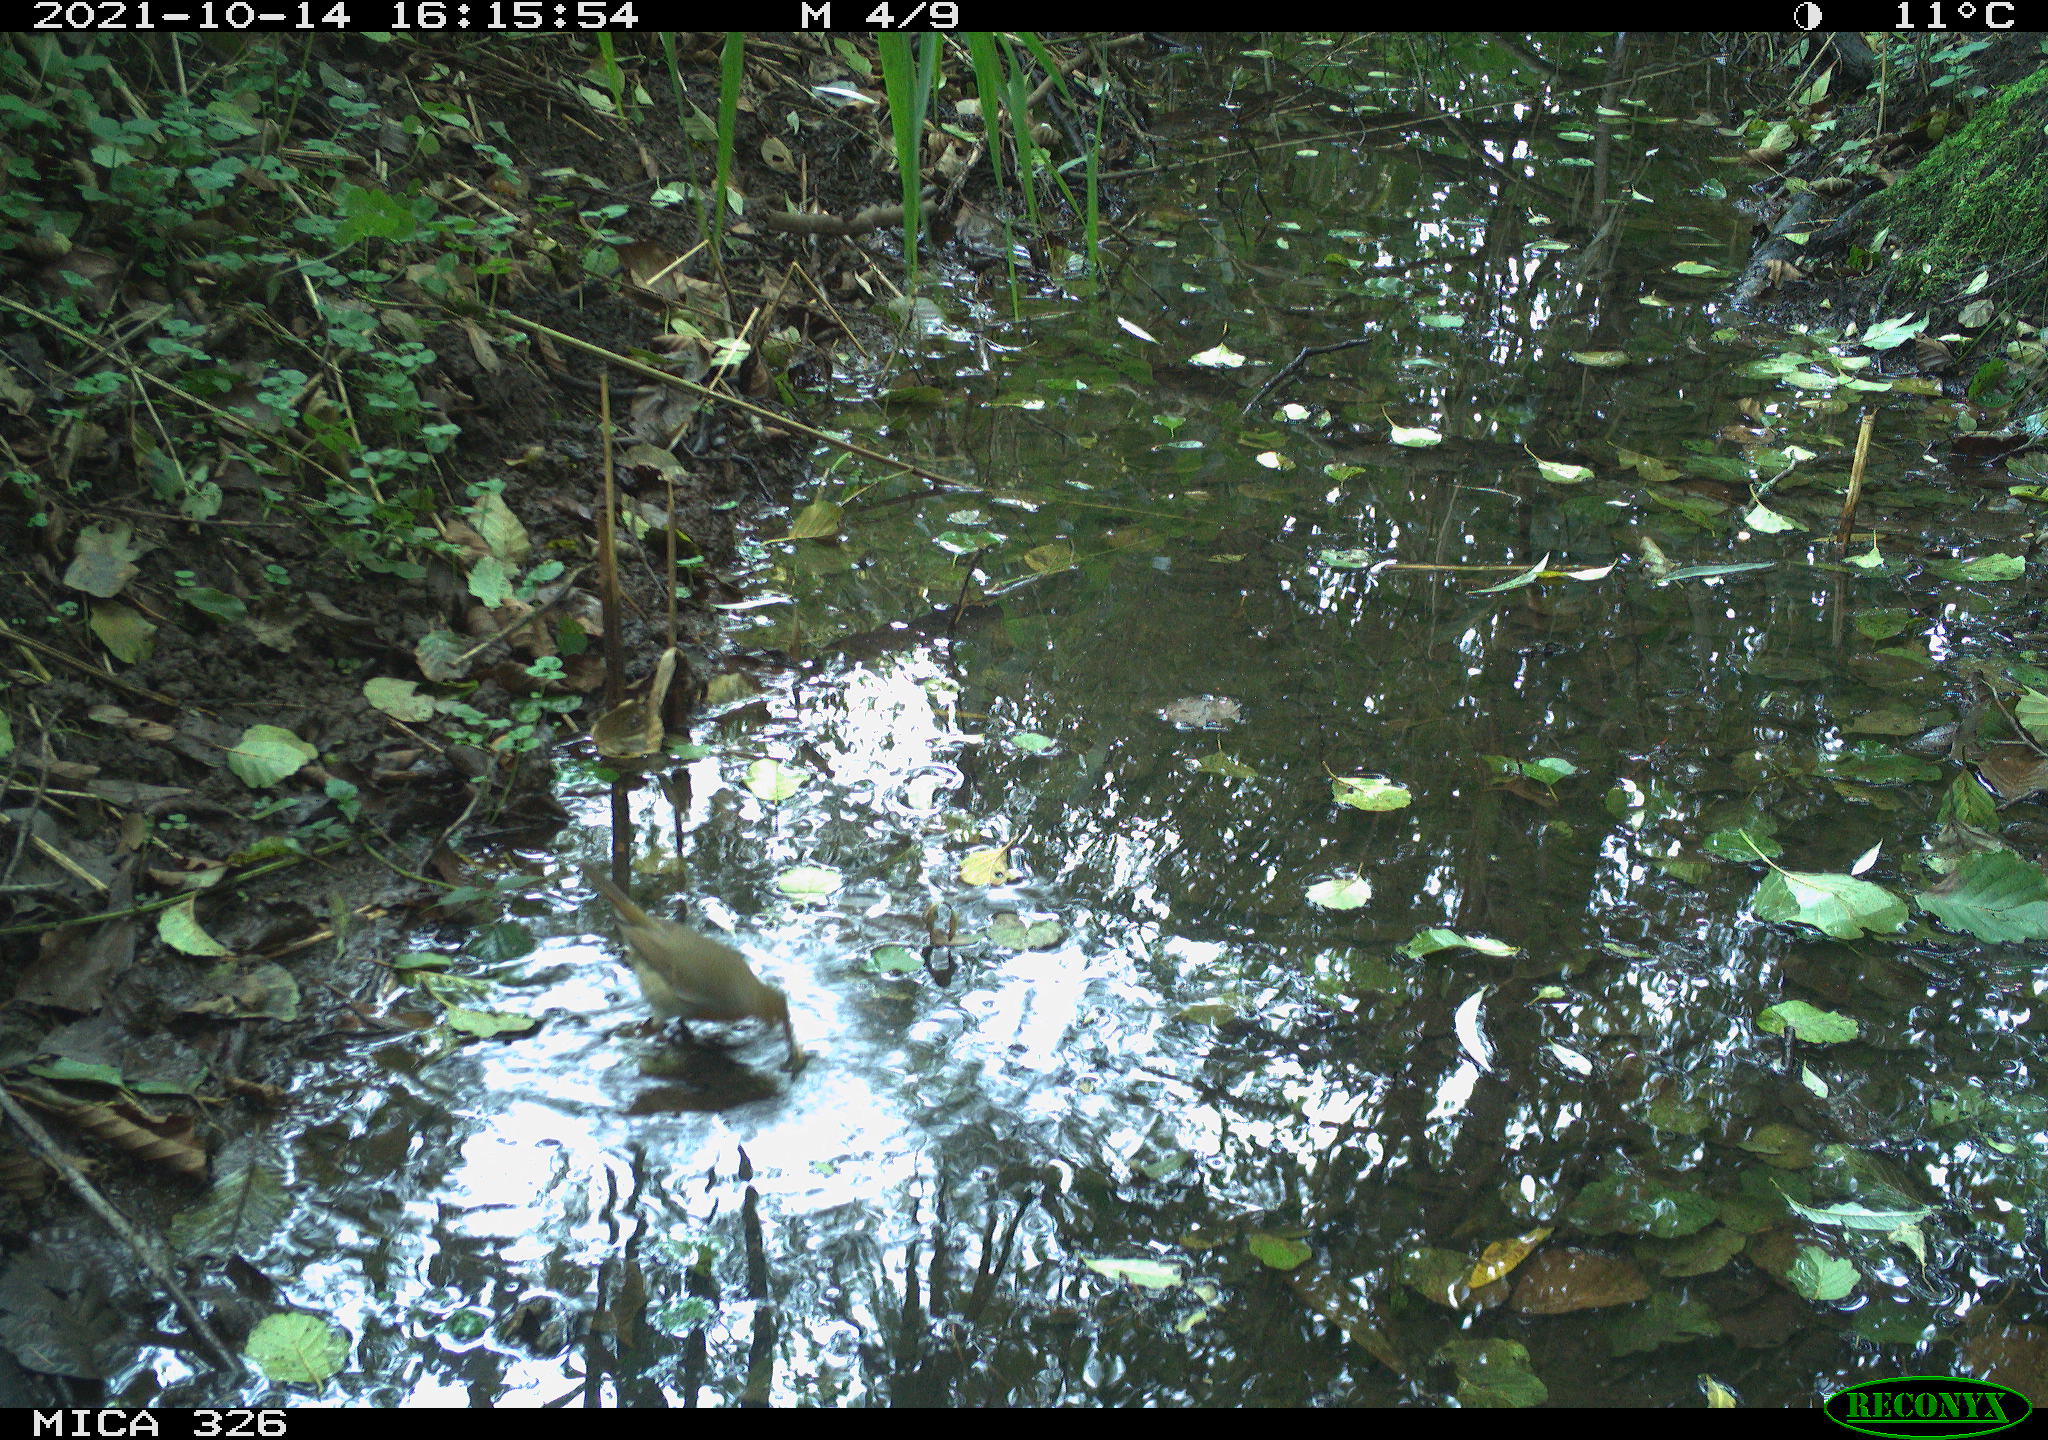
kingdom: Animalia
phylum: Chordata
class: Aves
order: Passeriformes
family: Muscicapidae
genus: Erithacus
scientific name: Erithacus rubecula
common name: European robin
